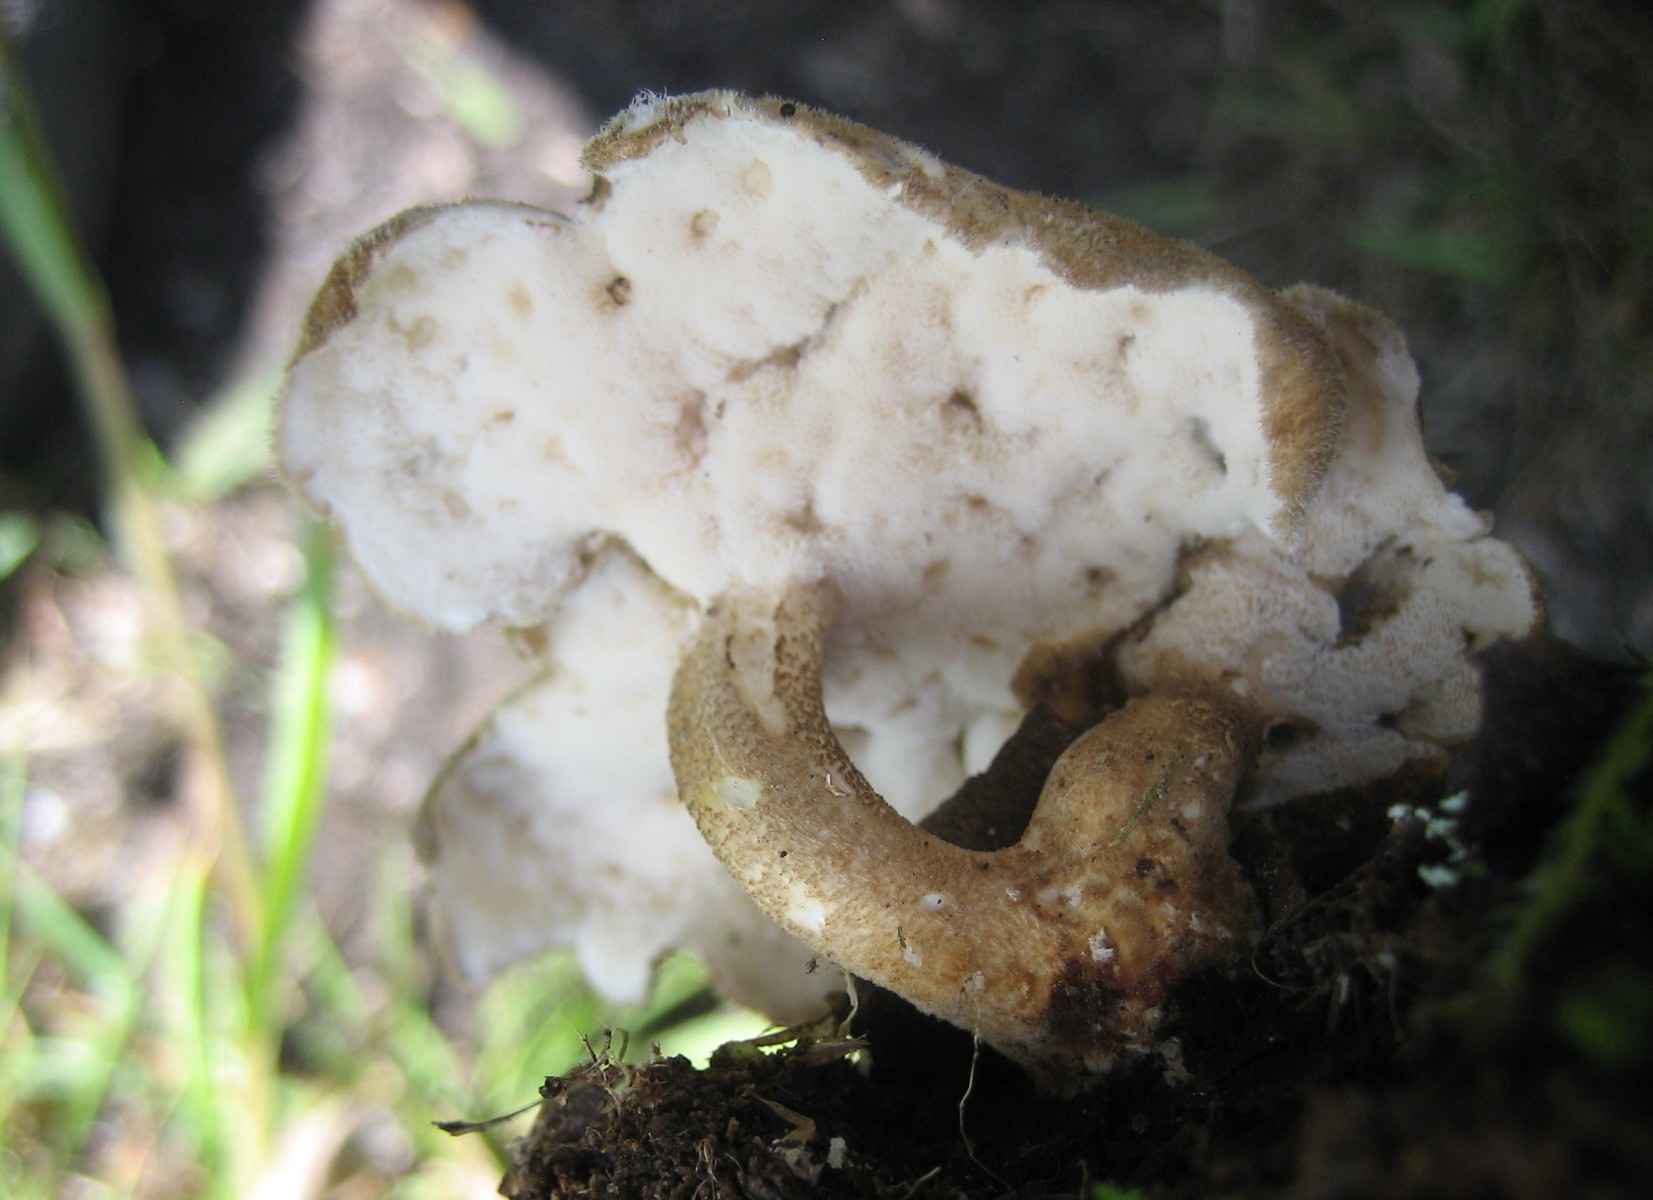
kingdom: Fungi
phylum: Basidiomycota
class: Agaricomycetes
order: Polyporales
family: Polyporaceae
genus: Lentinus
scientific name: Lentinus substrictus
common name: forårs-stilkporesvamp
